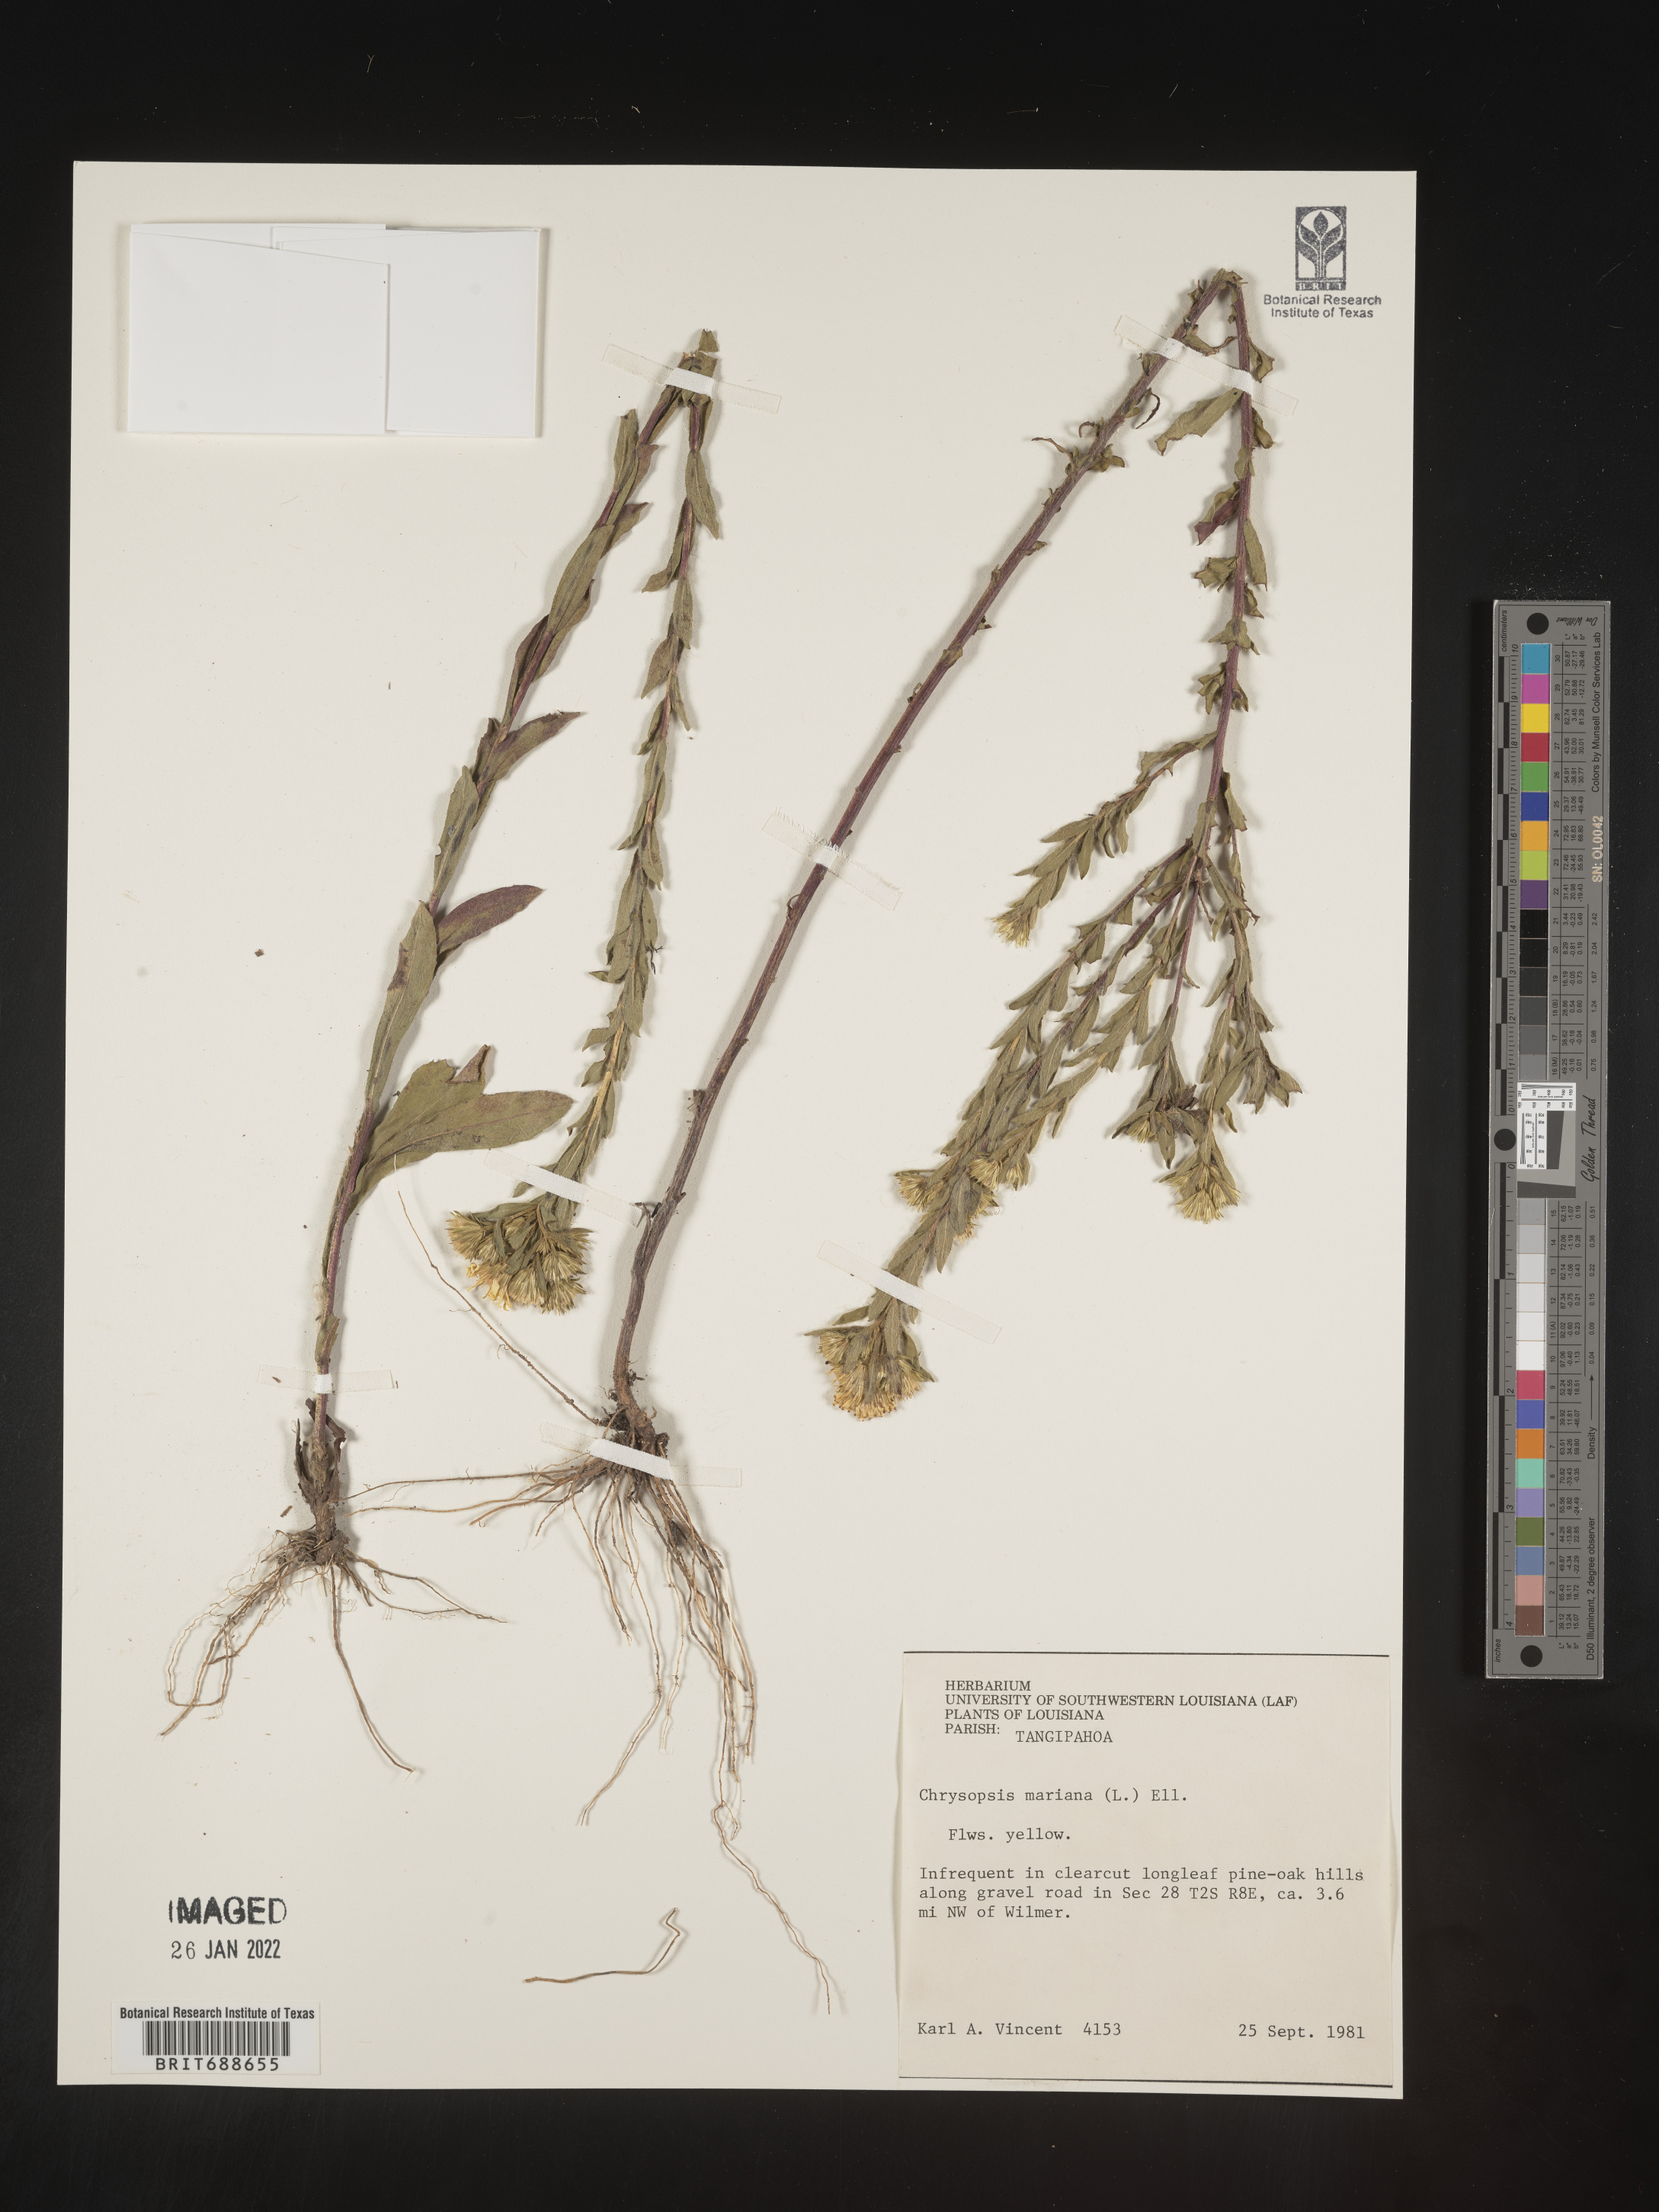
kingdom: Plantae
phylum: Tracheophyta
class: Magnoliopsida
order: Asterales
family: Asteraceae
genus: Chrysopsis
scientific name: Chrysopsis mariana
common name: Maryland golden-aster
